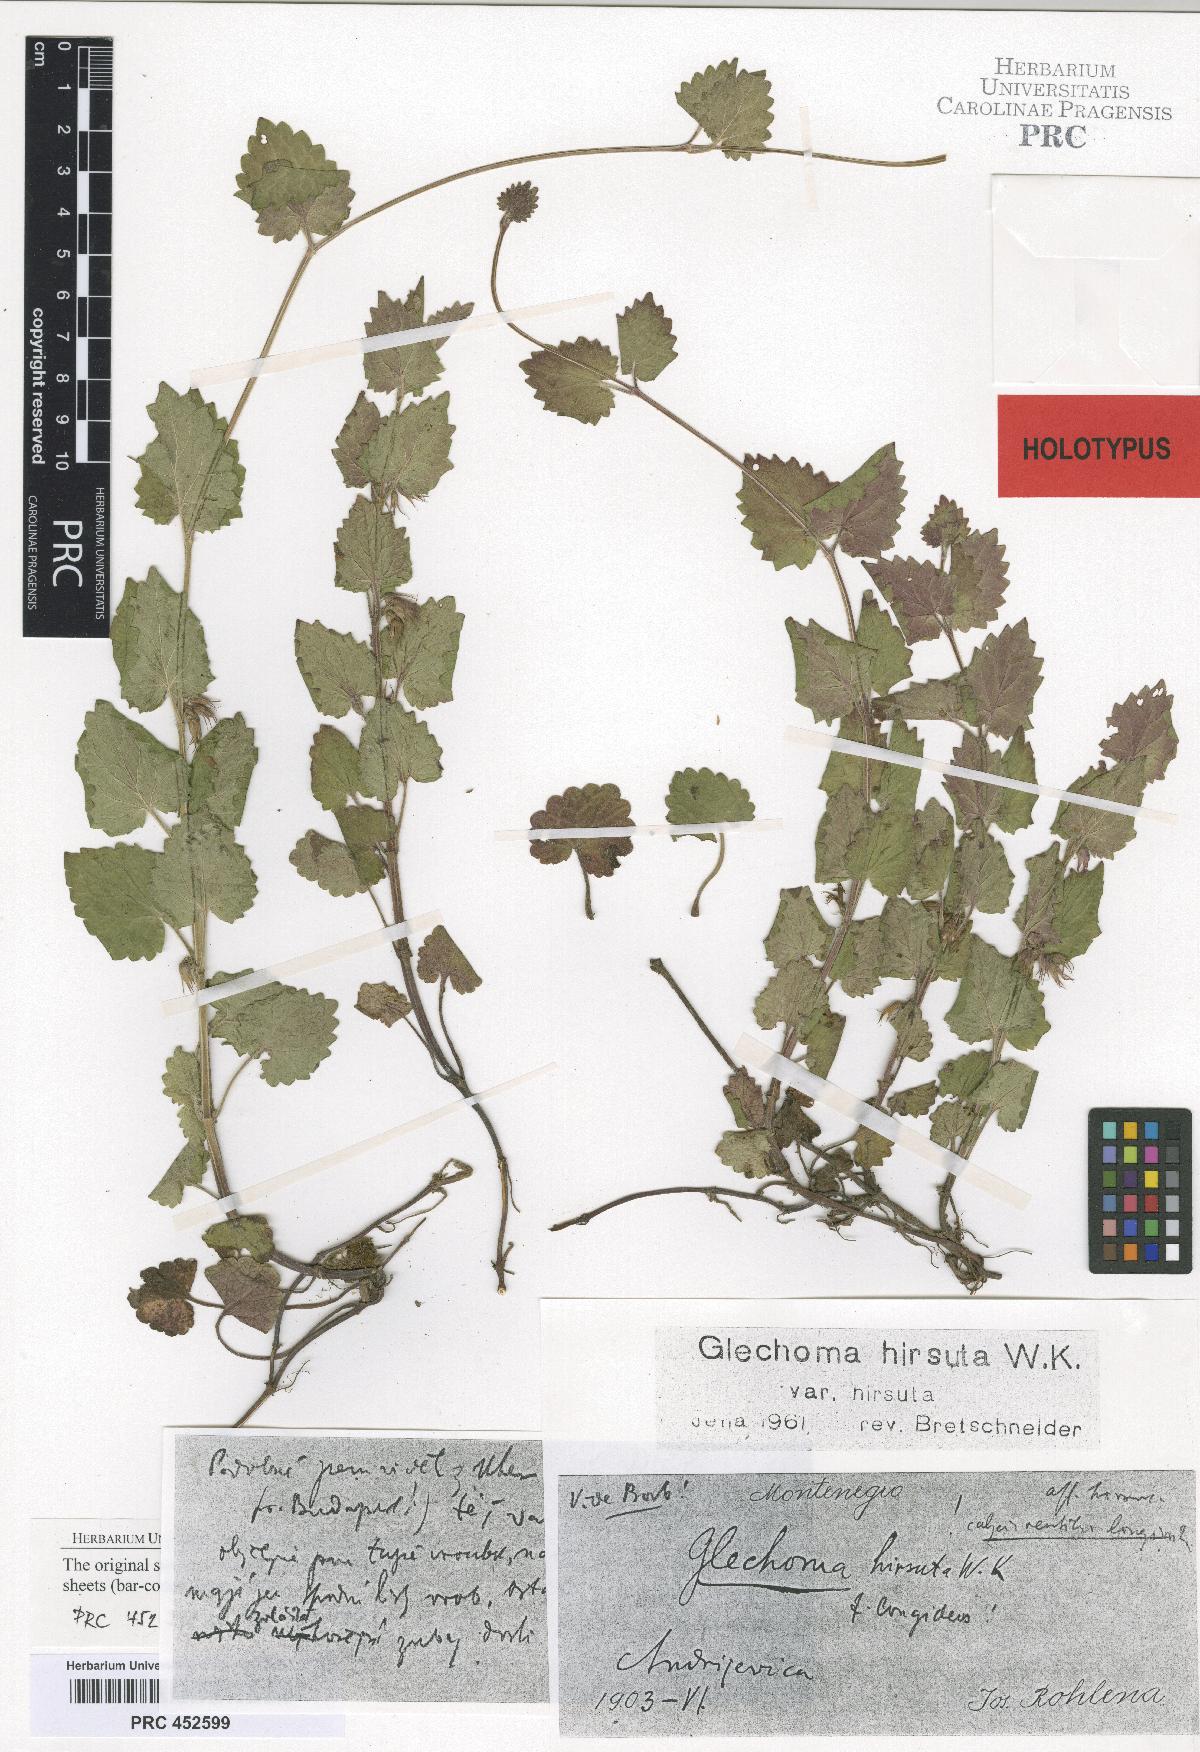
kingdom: Plantae
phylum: Tracheophyta
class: Magnoliopsida
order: Lamiales
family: Lamiaceae
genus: Glechoma
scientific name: Glechoma hirsuta
